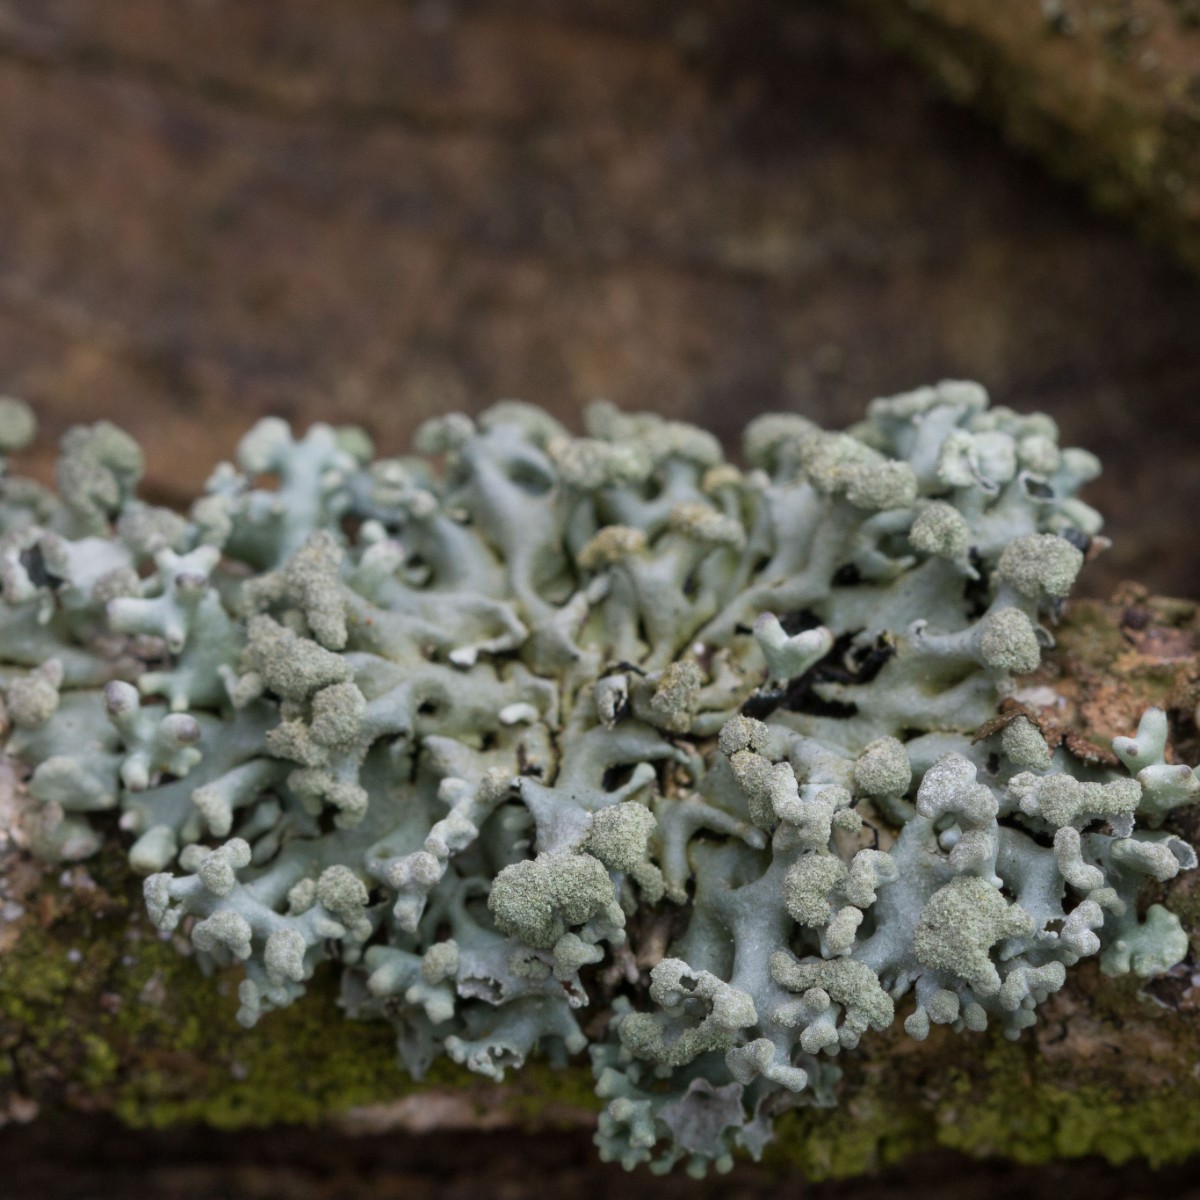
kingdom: Fungi
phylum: Ascomycota
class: Lecanoromycetes
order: Lecanorales
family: Parmeliaceae
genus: Hypogymnia
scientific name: Hypogymnia tubulosa
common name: finger-kvistlav
